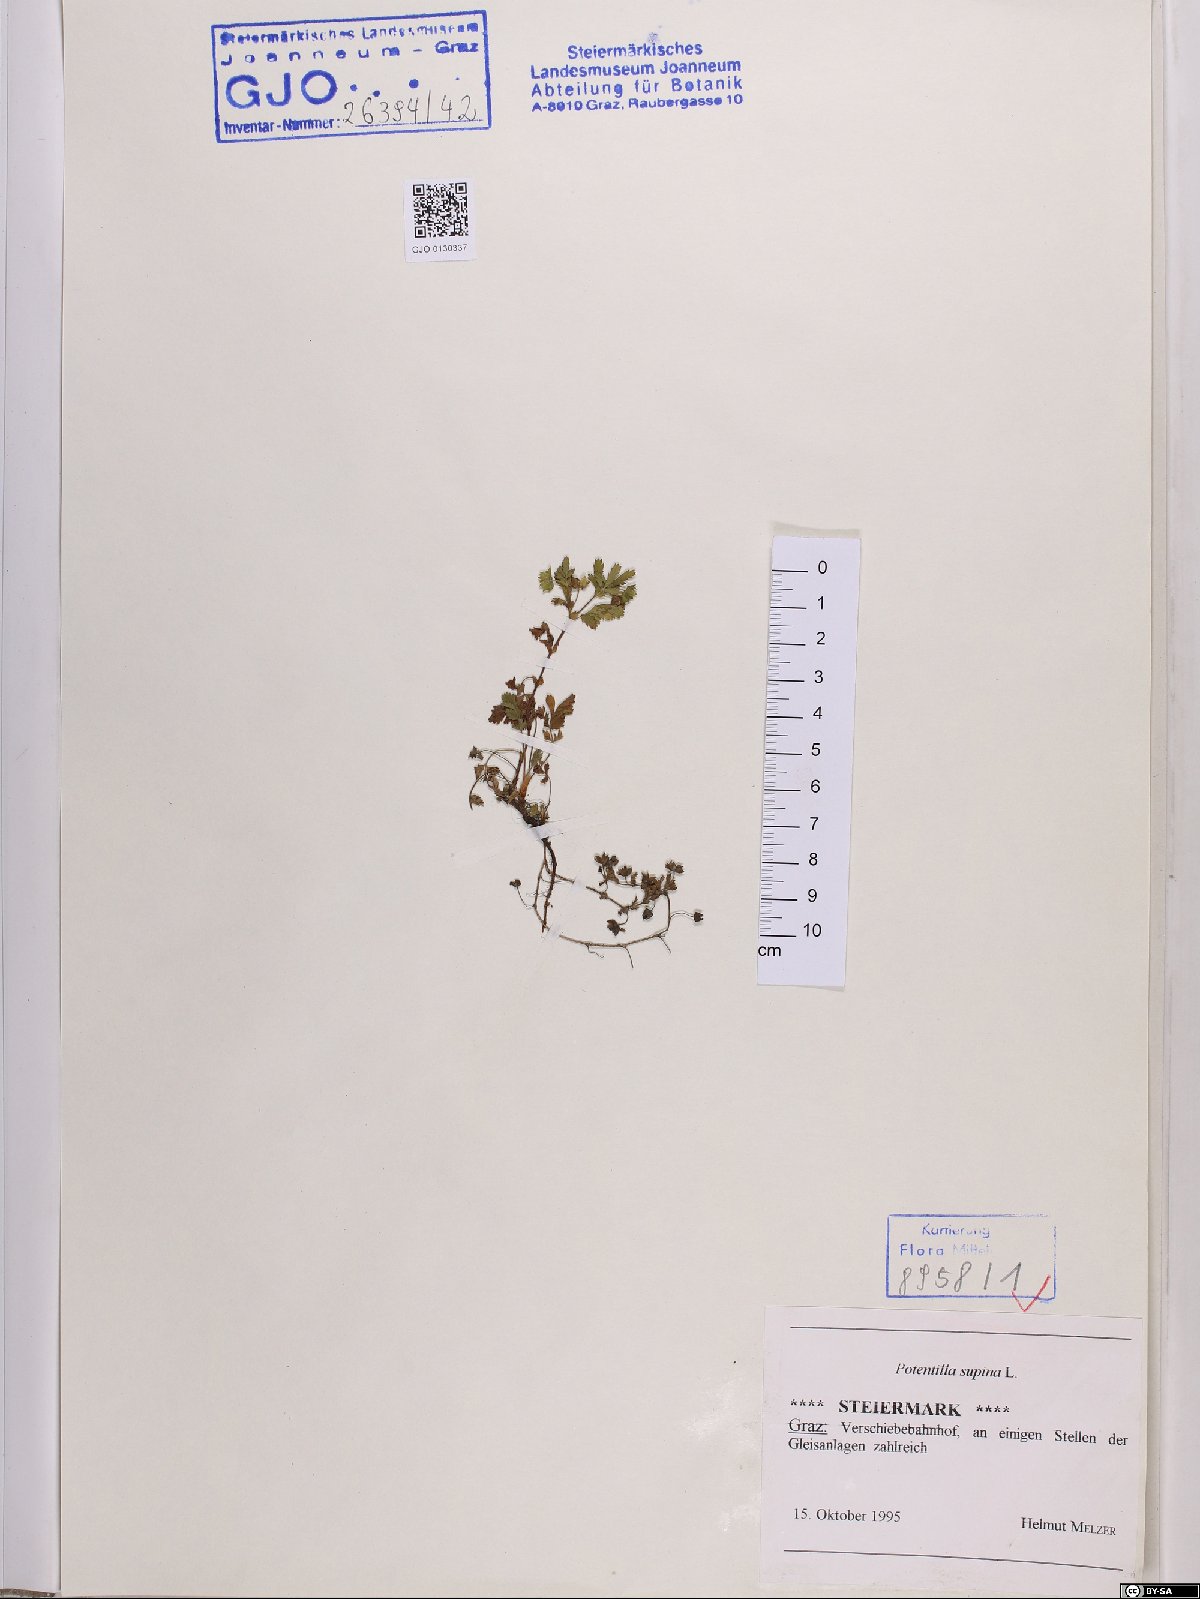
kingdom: Plantae
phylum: Tracheophyta
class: Magnoliopsida
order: Rosales
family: Rosaceae
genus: Potentilla
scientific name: Potentilla supina
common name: Prostrate cinquefoil
